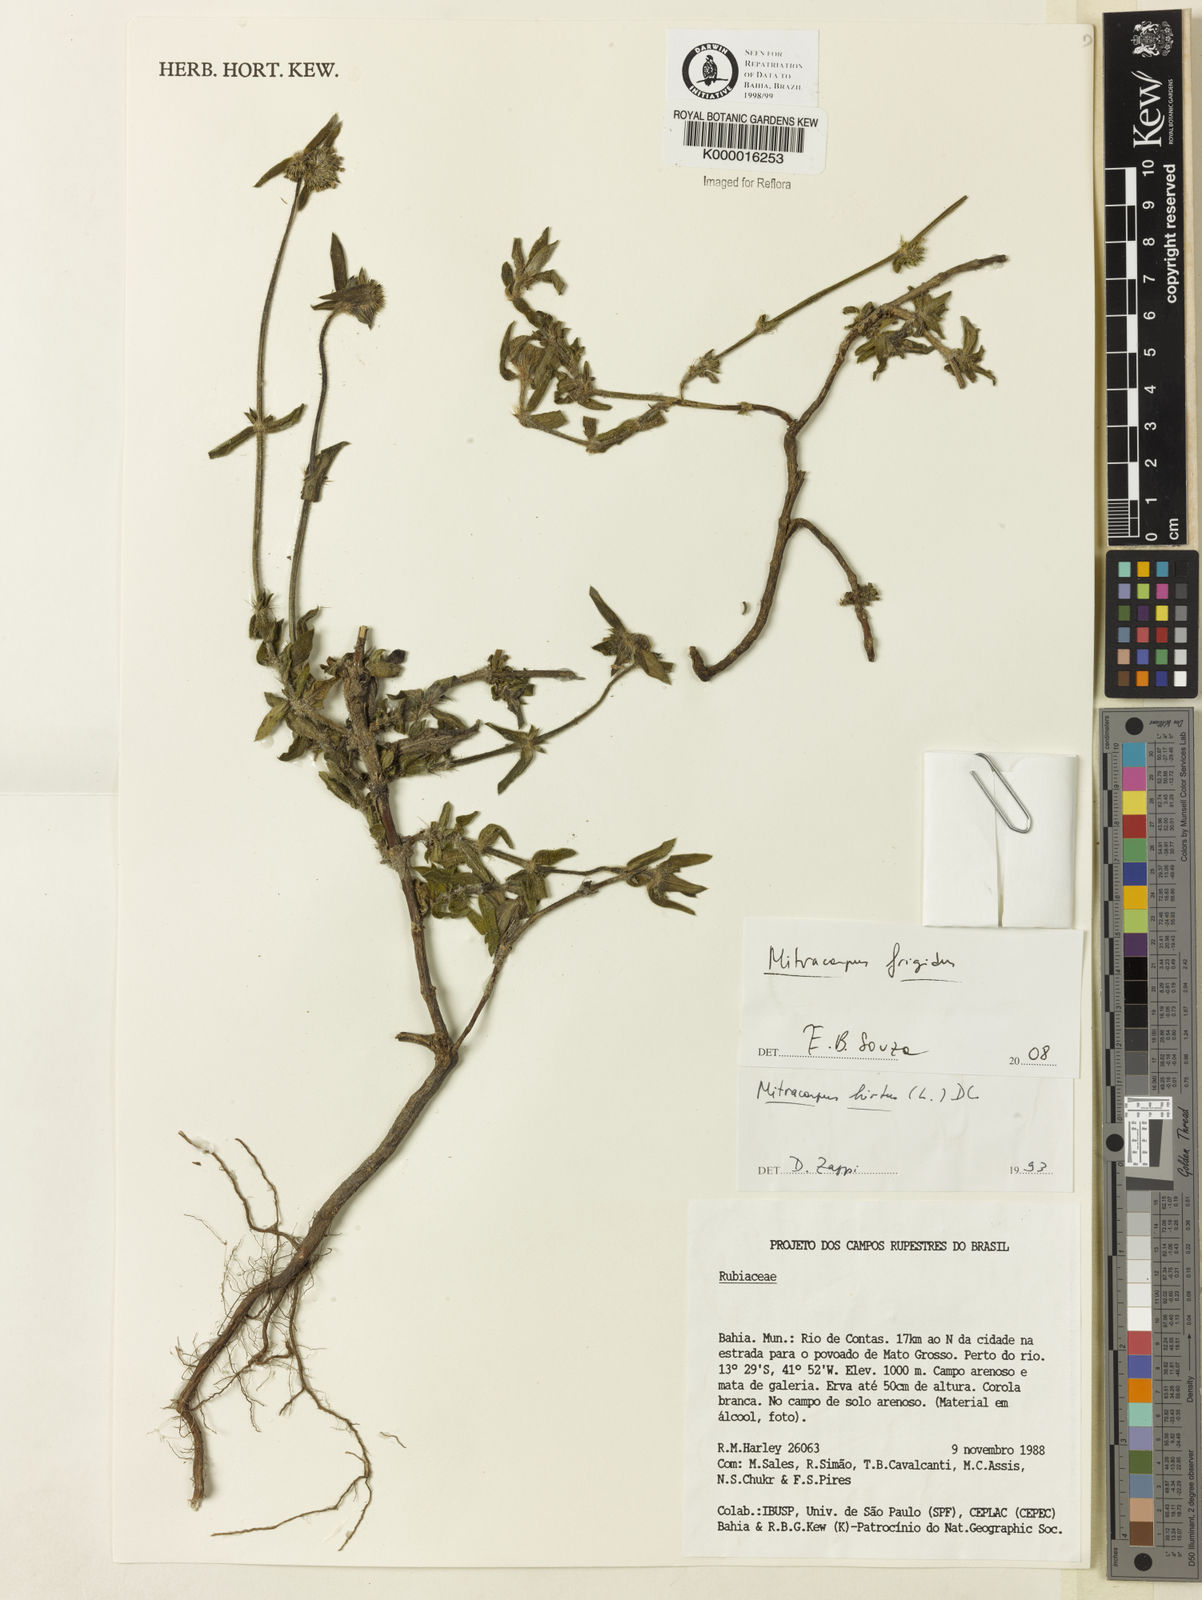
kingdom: Plantae
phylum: Tracheophyta
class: Magnoliopsida
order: Gentianales
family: Rubiaceae
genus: Mitracarpus
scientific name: Mitracarpus
